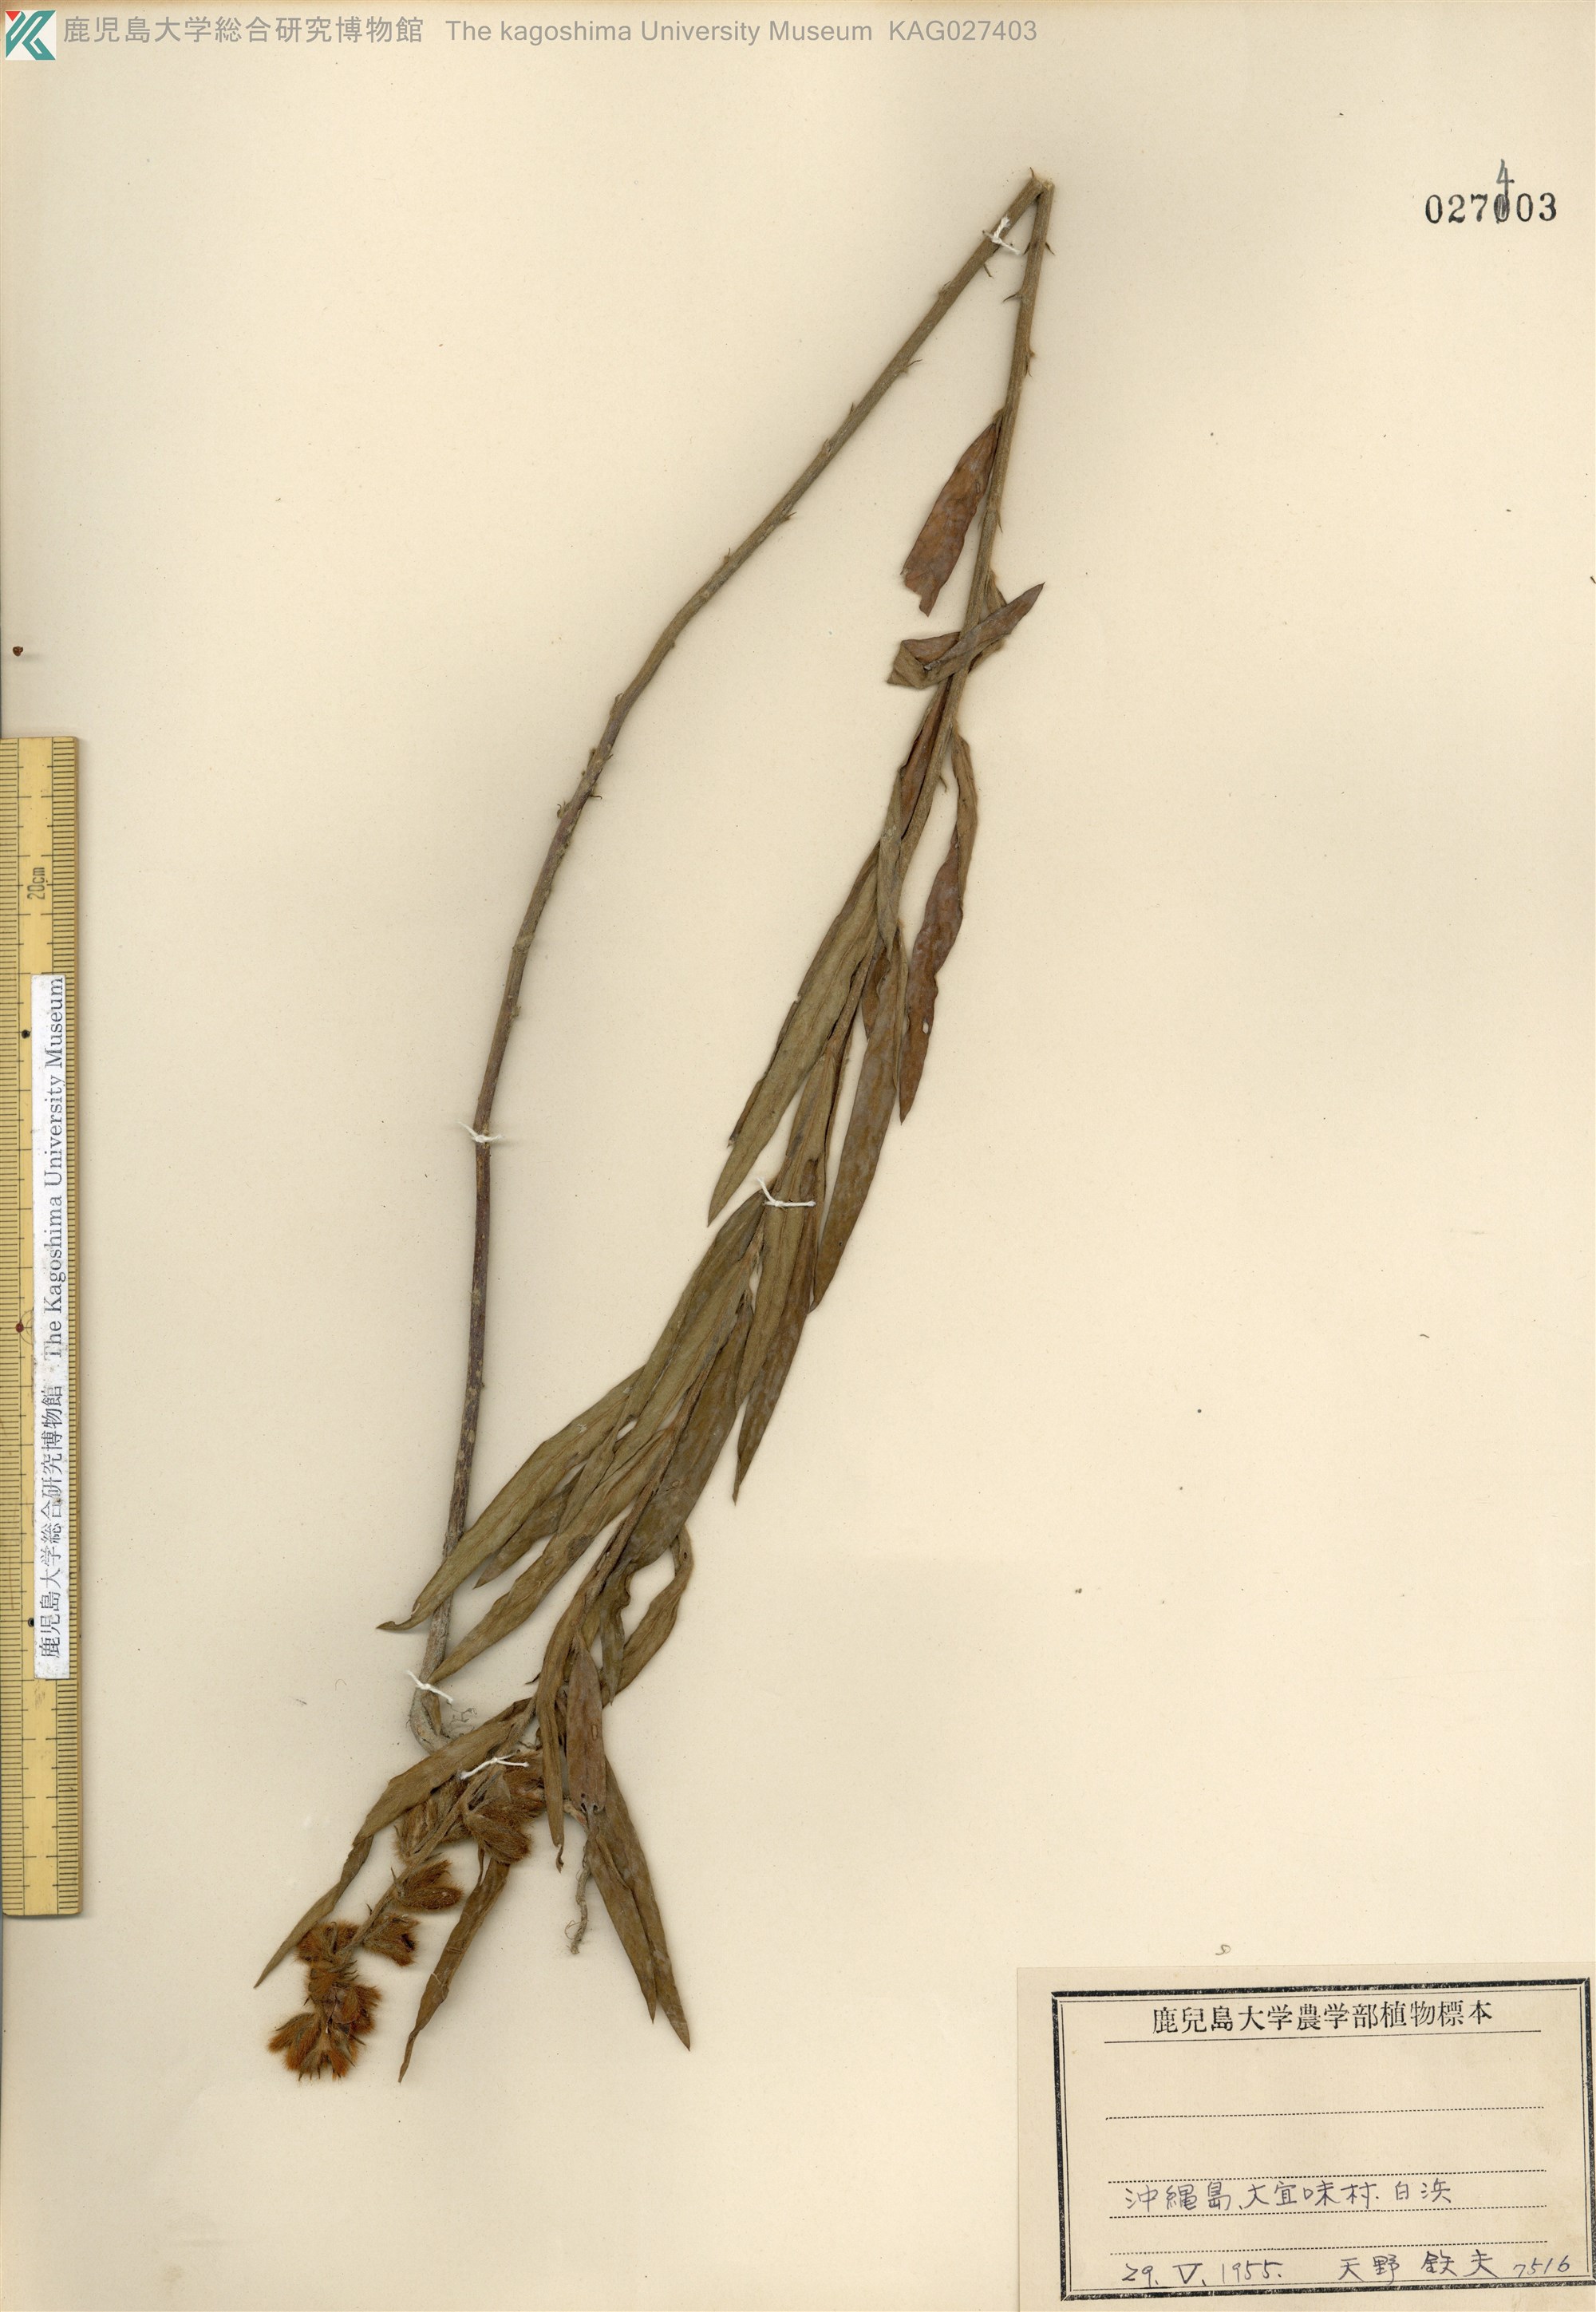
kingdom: Plantae
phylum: Tracheophyta
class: Magnoliopsida
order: Fabales
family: Fabaceae
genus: Crotalaria
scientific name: Crotalaria sessiliflora
